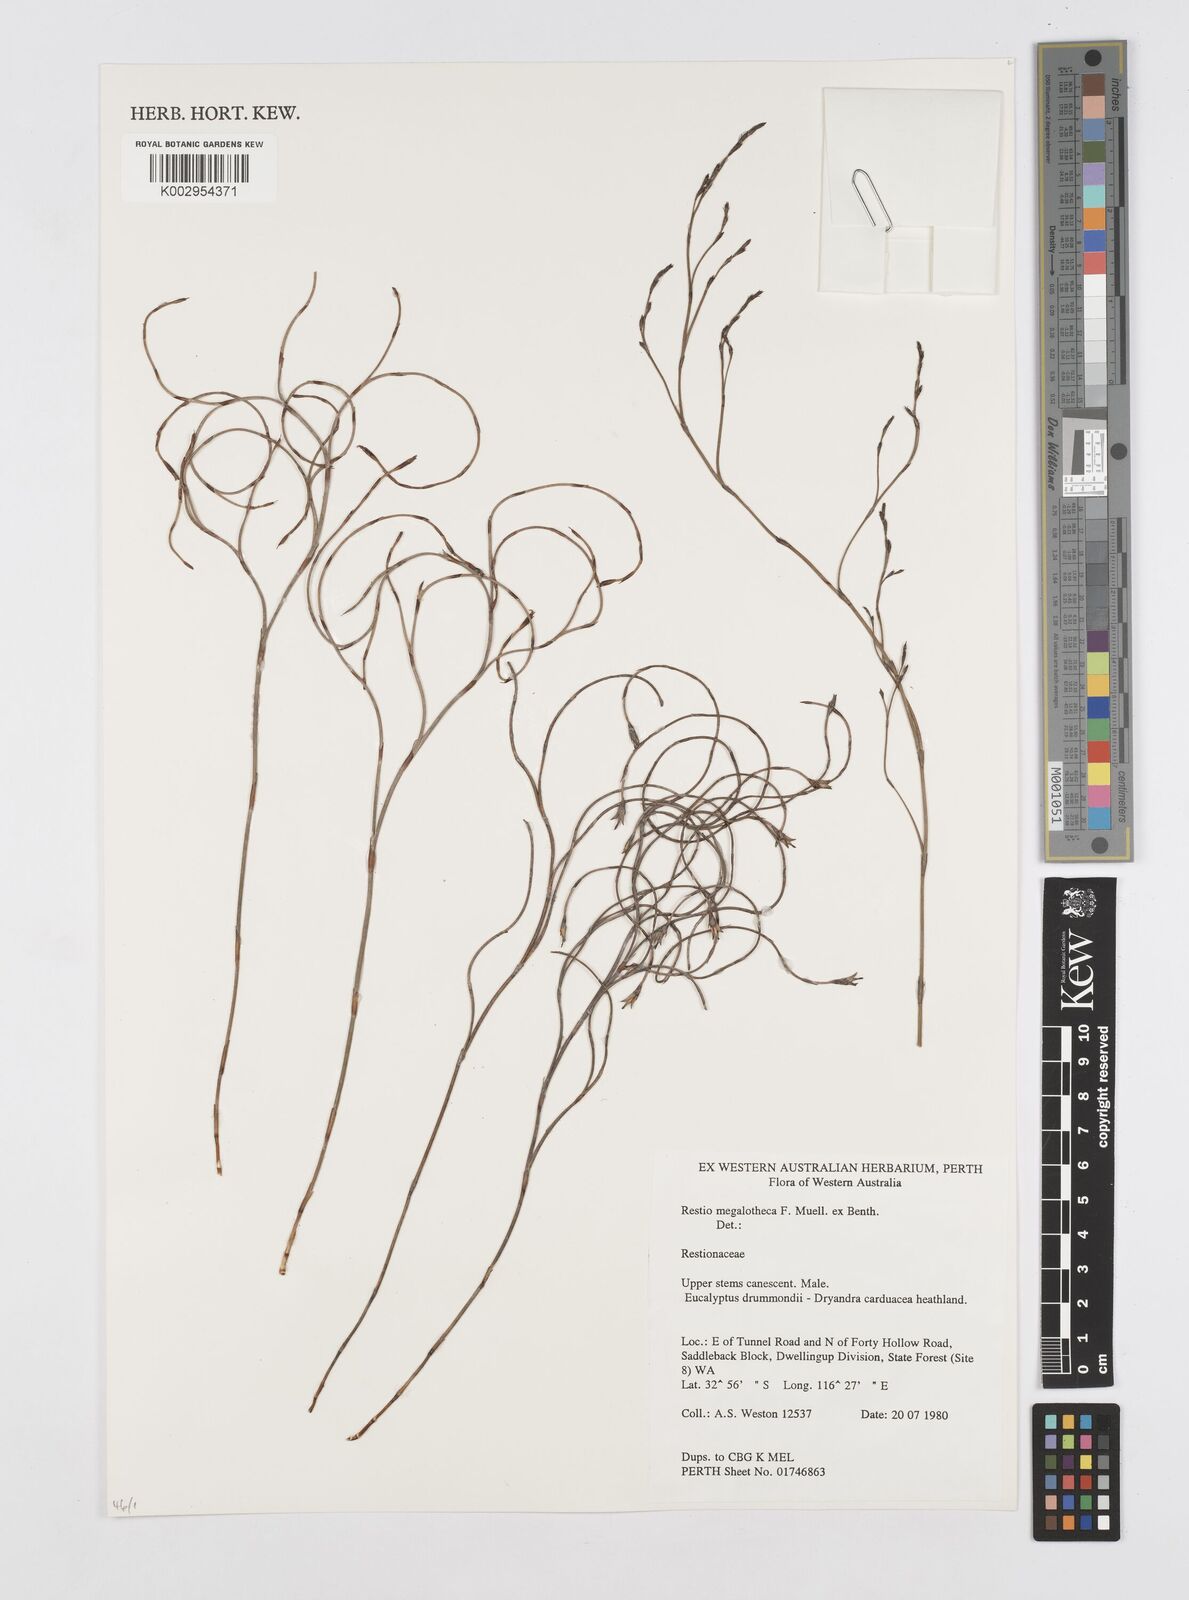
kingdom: Plantae
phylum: Tracheophyta
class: Liliopsida
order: Poales
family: Restionaceae
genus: Loxocarya
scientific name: Loxocarya striata
